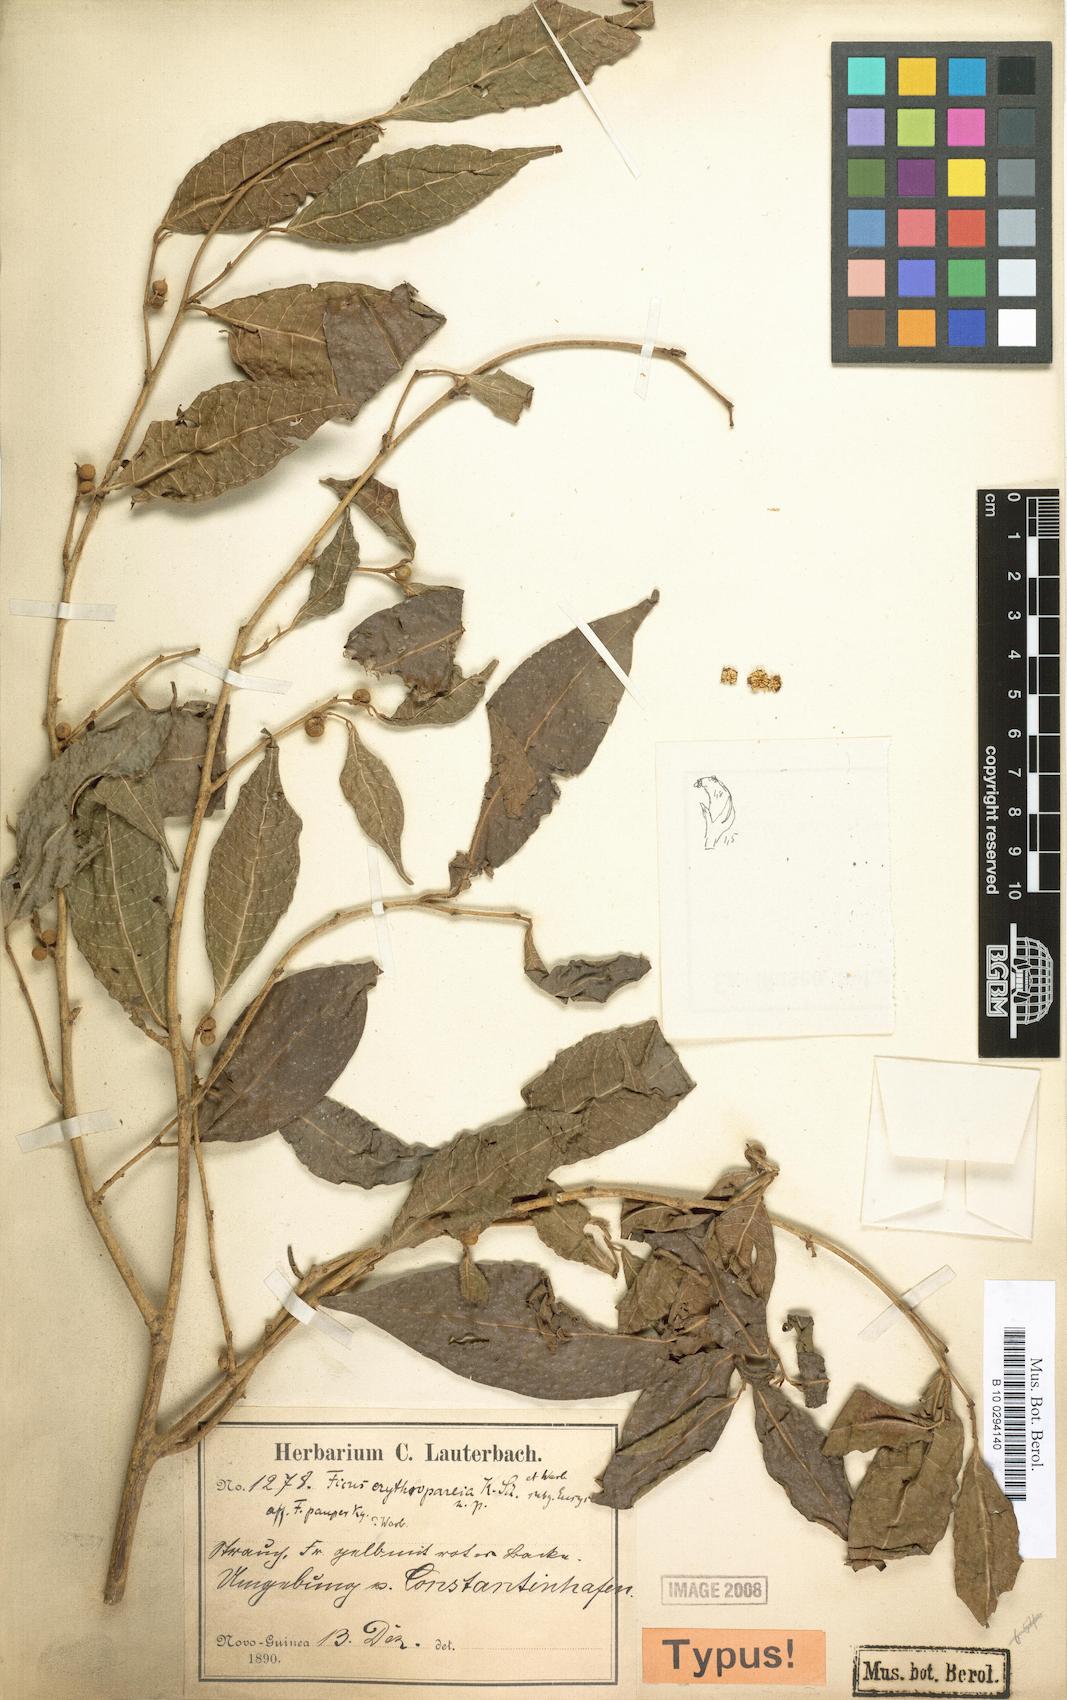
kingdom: Plantae
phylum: Tracheophyta
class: Magnoliopsida
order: Rosales
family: Moraceae
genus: Ficus
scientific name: Ficus subulata
